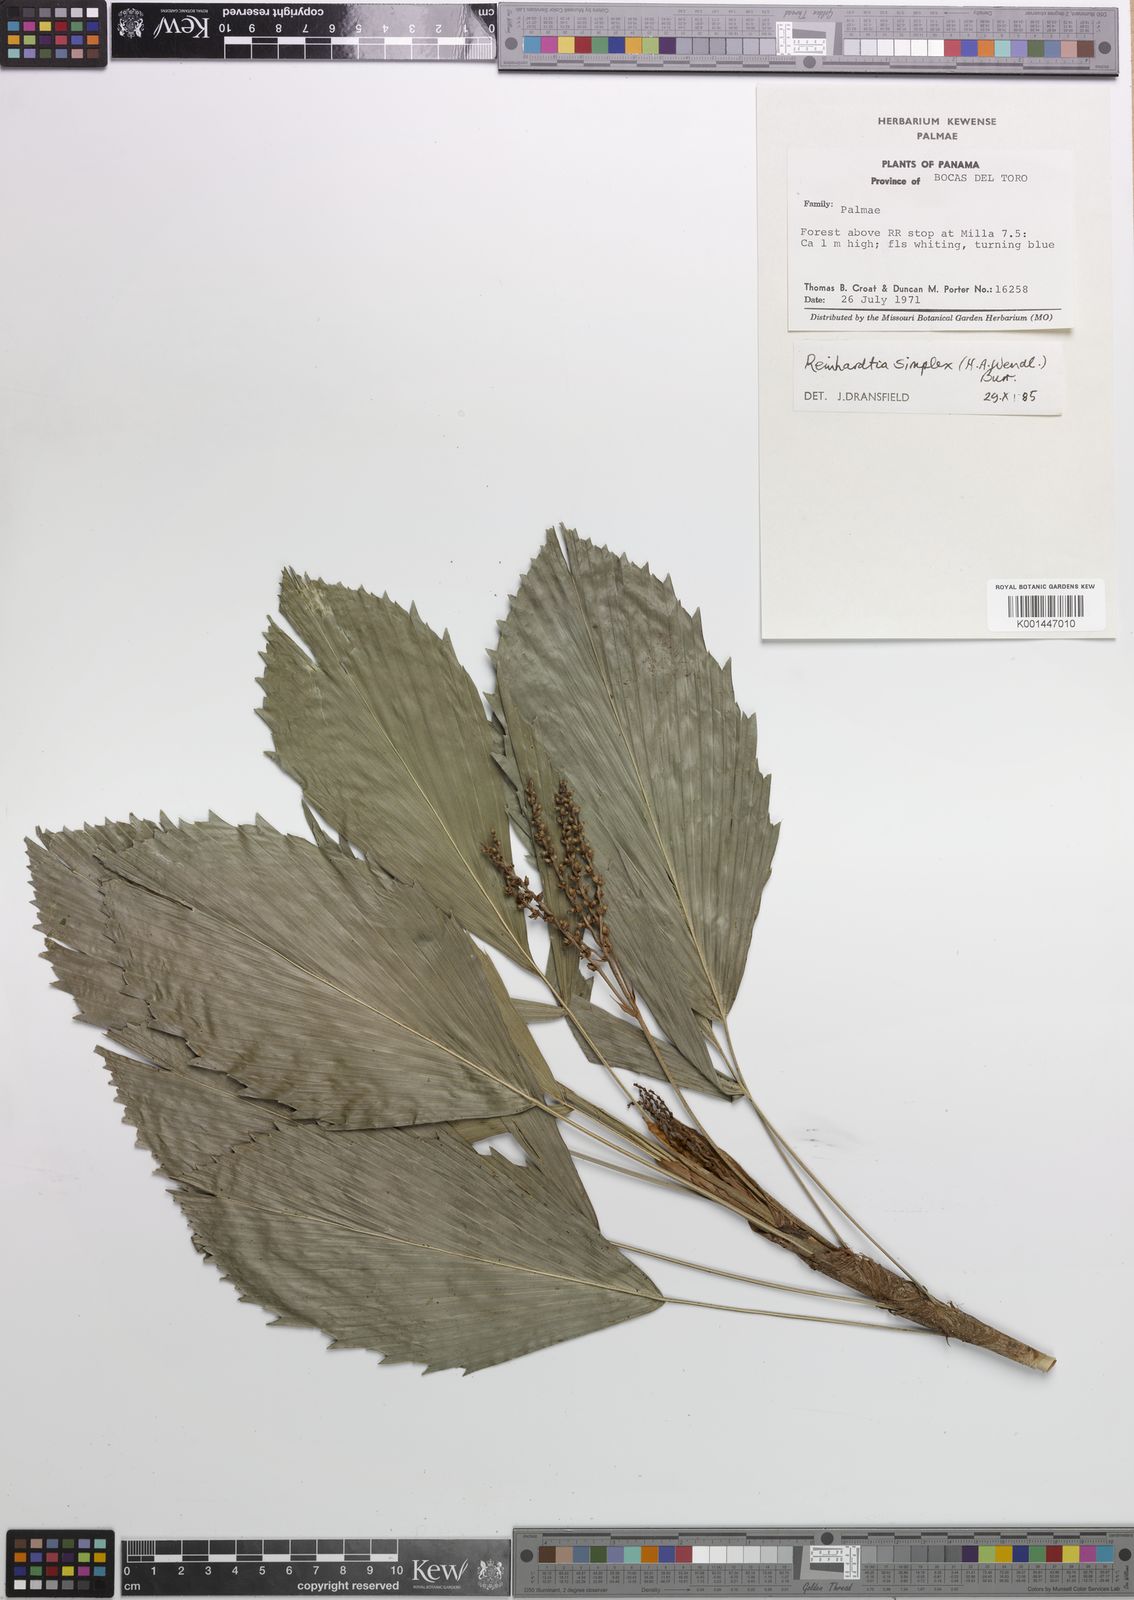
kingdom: Plantae
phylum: Tracheophyta
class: Liliopsida
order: Arecales
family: Arecaceae
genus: Reinhardtia
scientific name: Reinhardtia simplex
